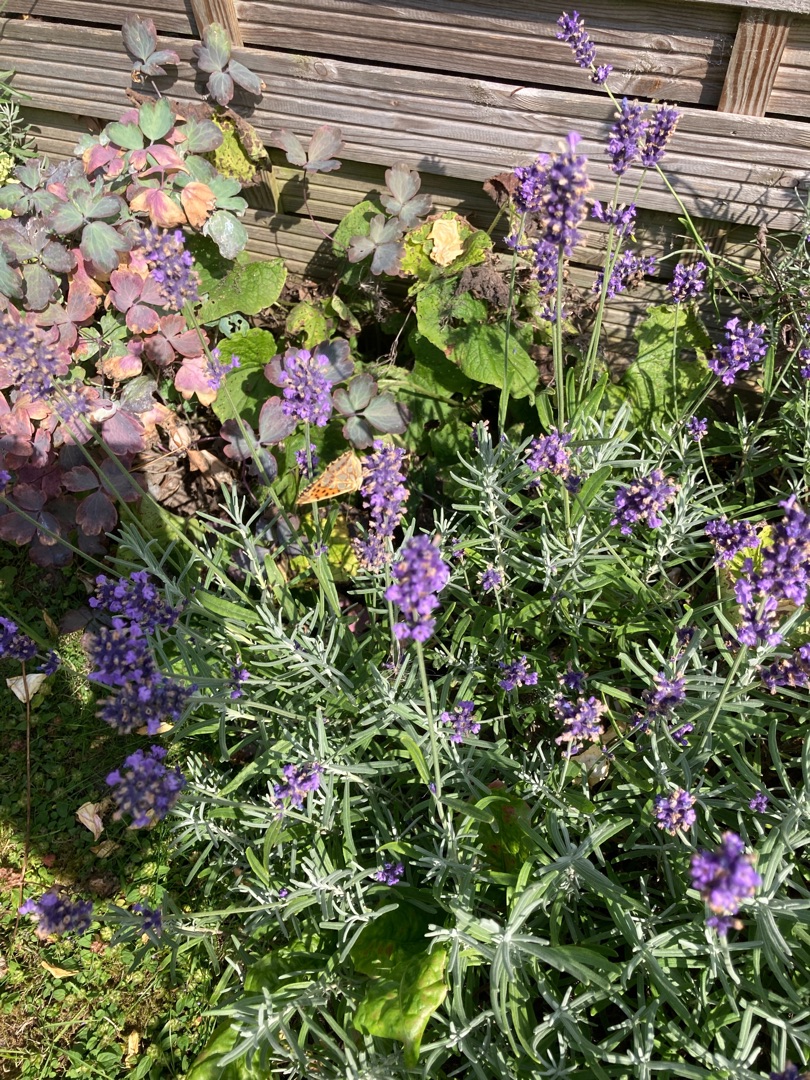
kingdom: Animalia
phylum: Arthropoda
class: Insecta
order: Lepidoptera
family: Nymphalidae
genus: Issoria
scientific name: Issoria lathonia
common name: Storplettet perlemorsommerfugl
